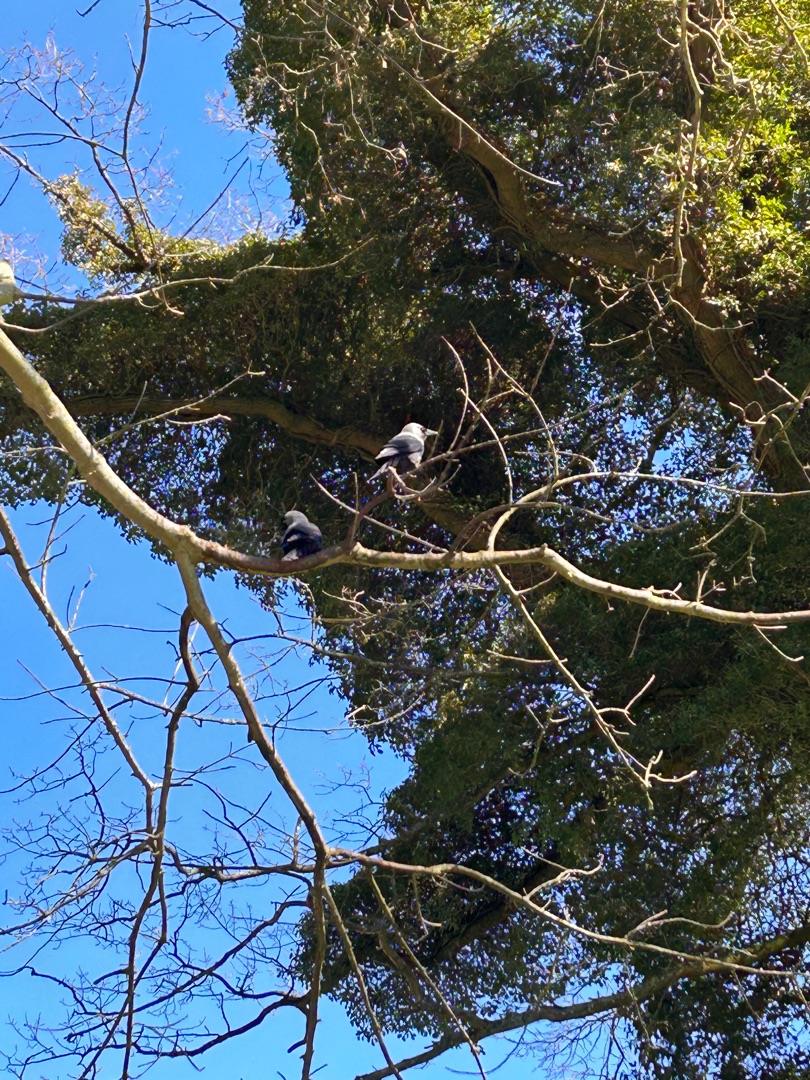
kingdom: Animalia
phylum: Chordata
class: Aves
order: Passeriformes
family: Corvidae
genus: Coloeus
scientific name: Coloeus monedula
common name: Allike
